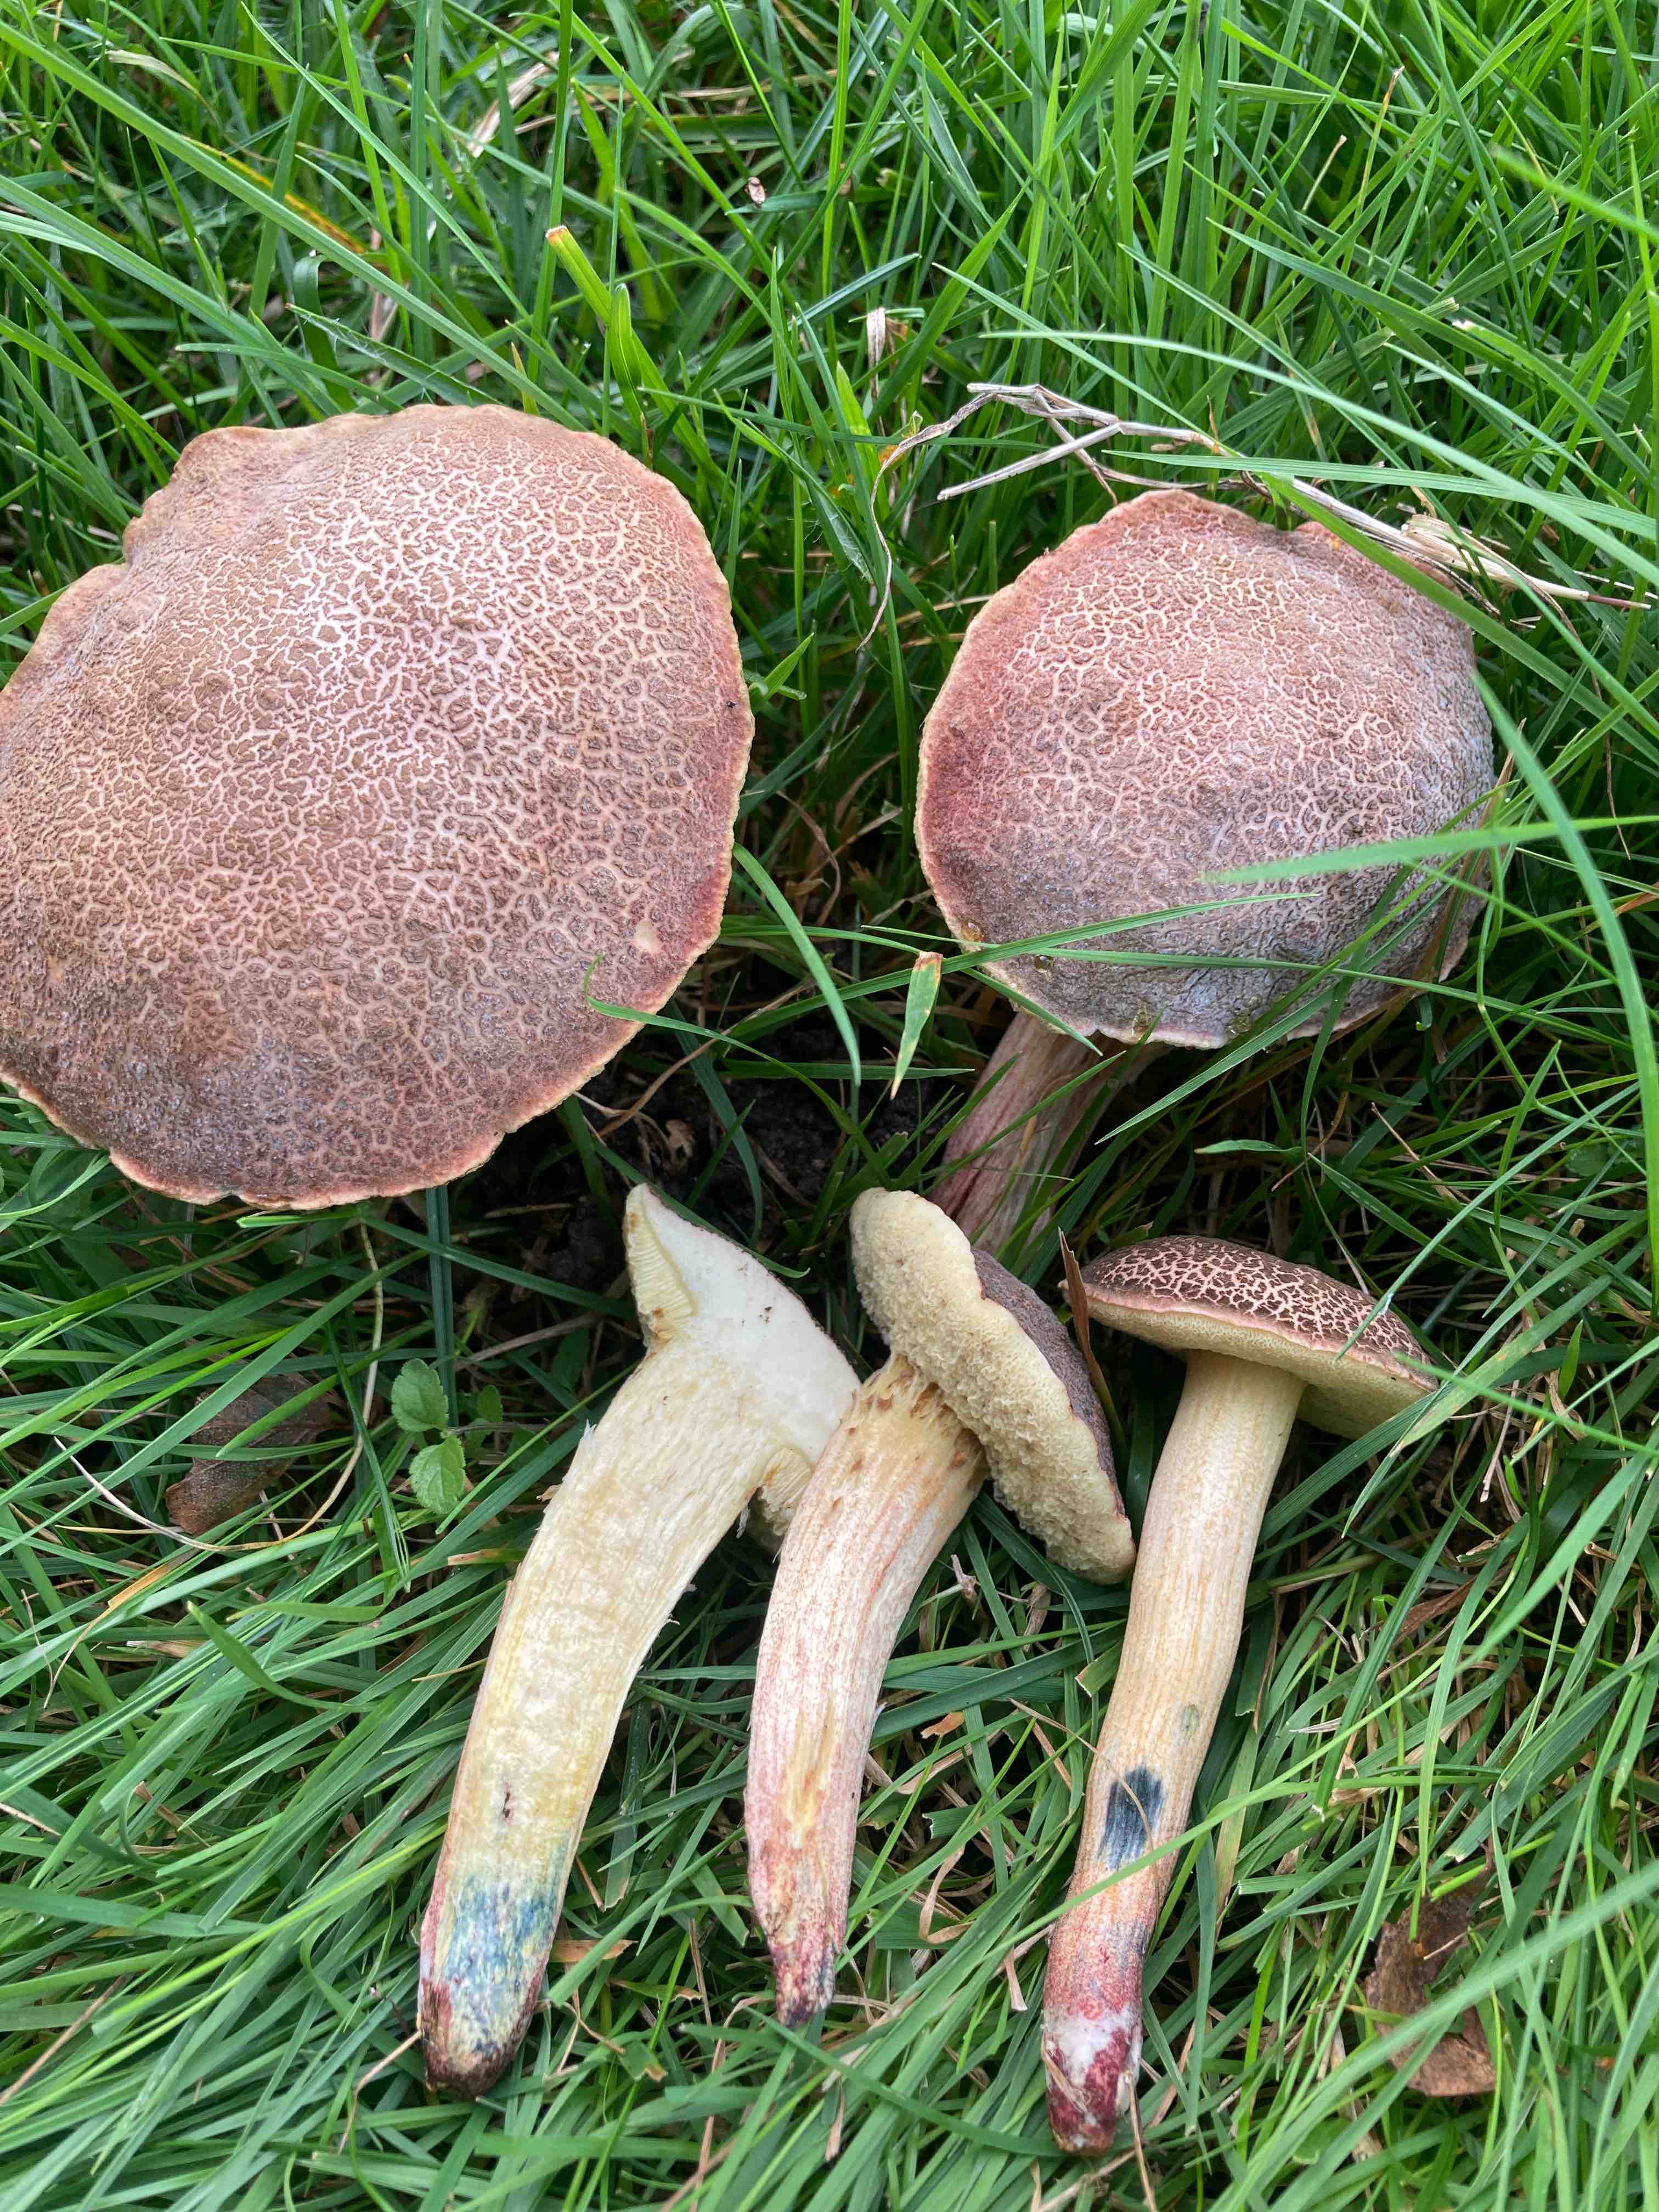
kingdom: Fungi
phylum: Basidiomycota
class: Agaricomycetes
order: Boletales
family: Boletaceae
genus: Xerocomellus
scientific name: Xerocomellus cisalpinus
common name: finsprukken rørhat
